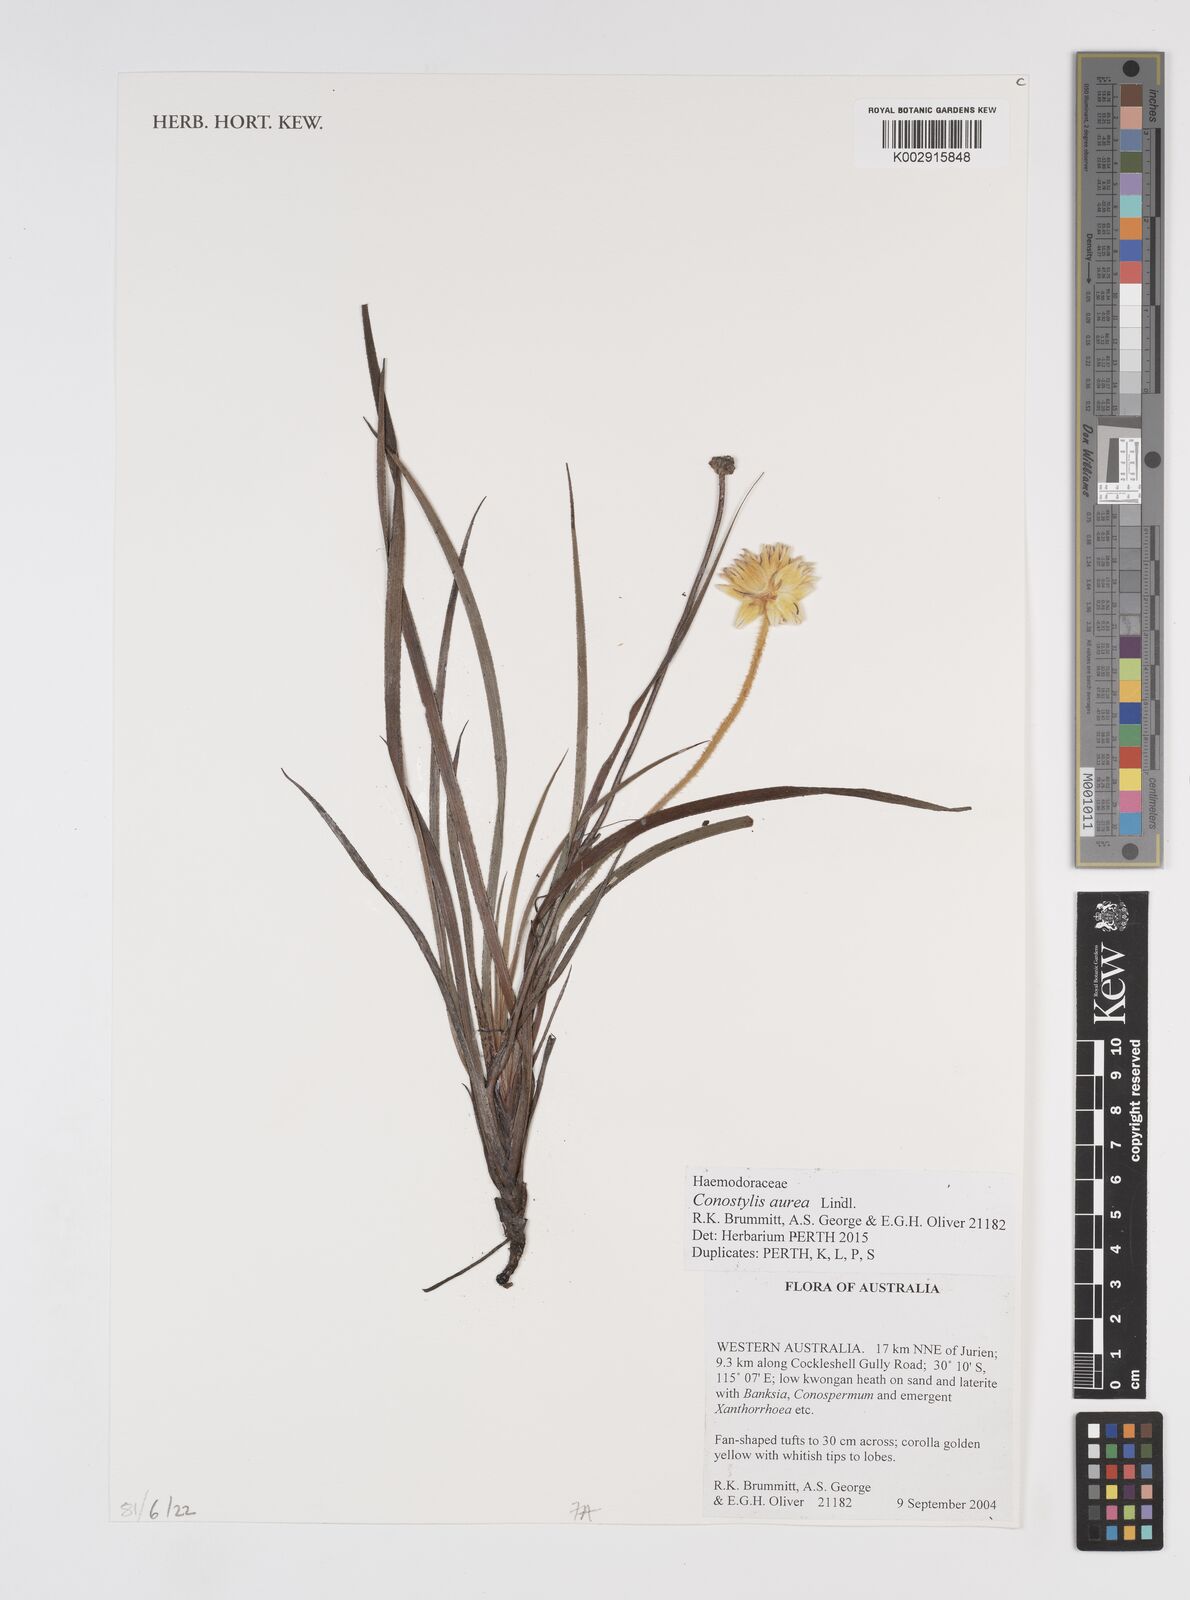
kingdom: Plantae
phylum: Tracheophyta
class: Liliopsida
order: Commelinales
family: Haemodoraceae
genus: Conostylis
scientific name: Conostylis aurea
